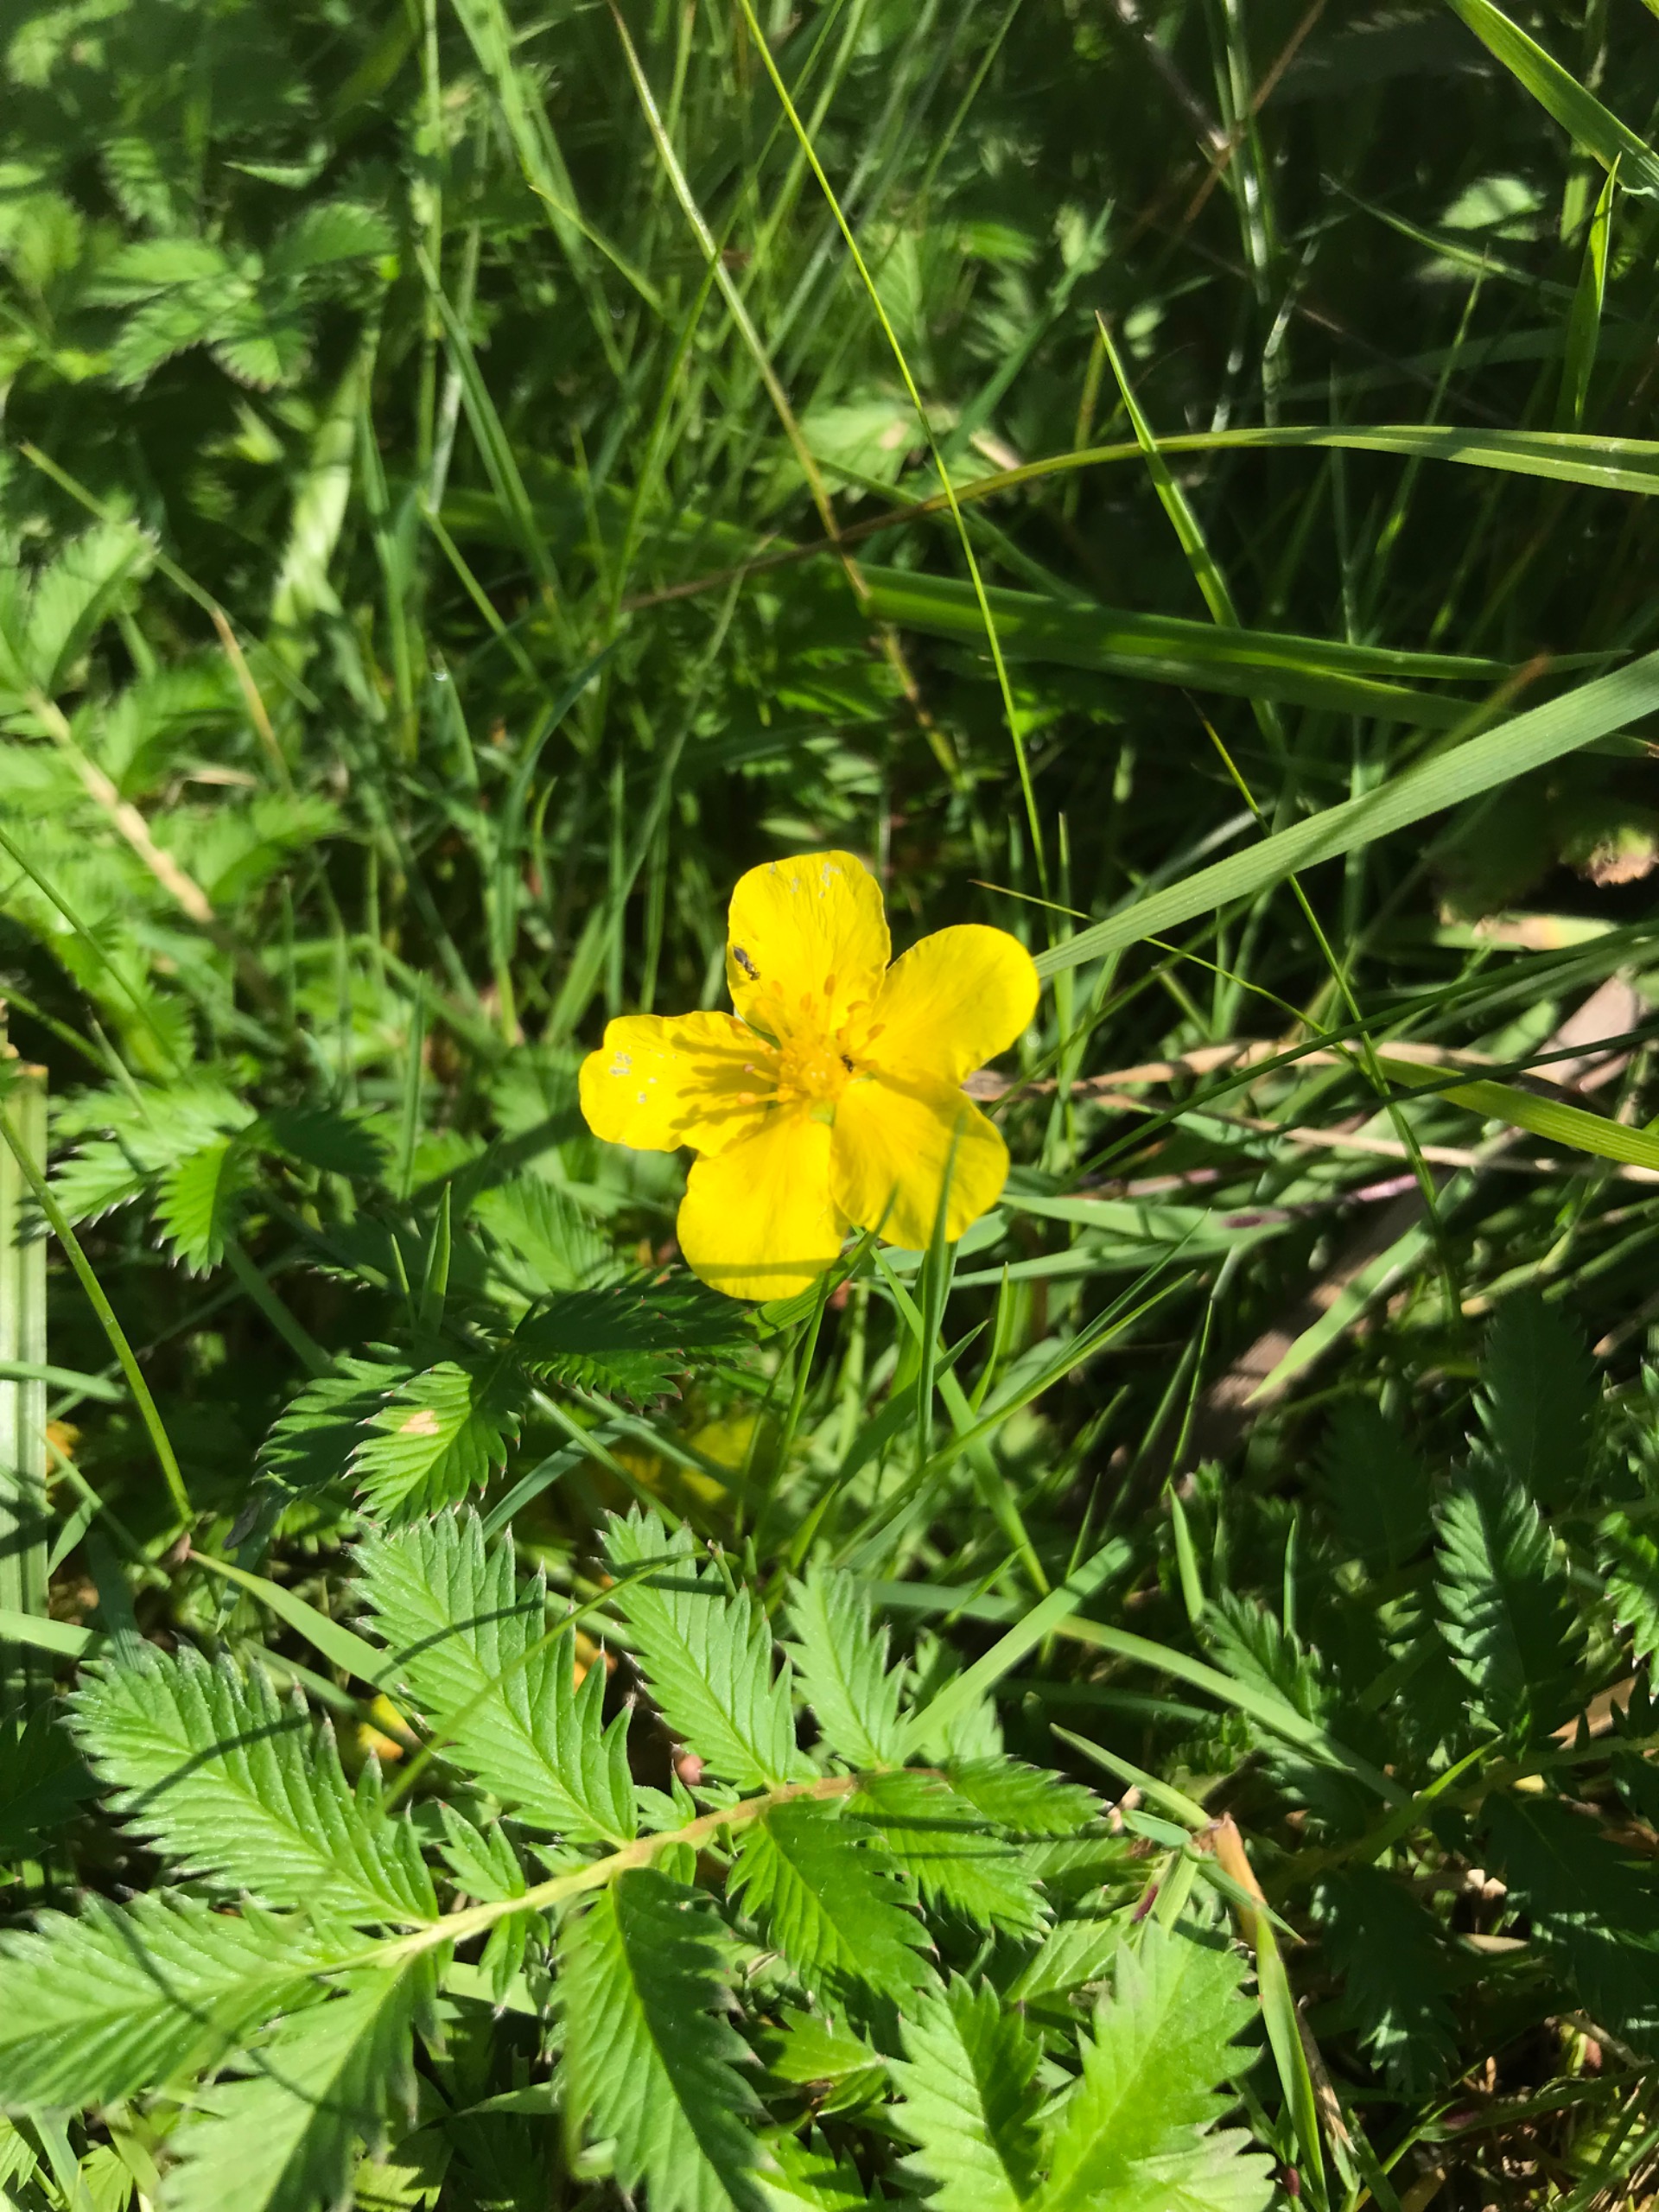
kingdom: Plantae
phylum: Tracheophyta
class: Magnoliopsida
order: Rosales
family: Rosaceae
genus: Argentina
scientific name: Argentina anserina
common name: Gåsepotentil
